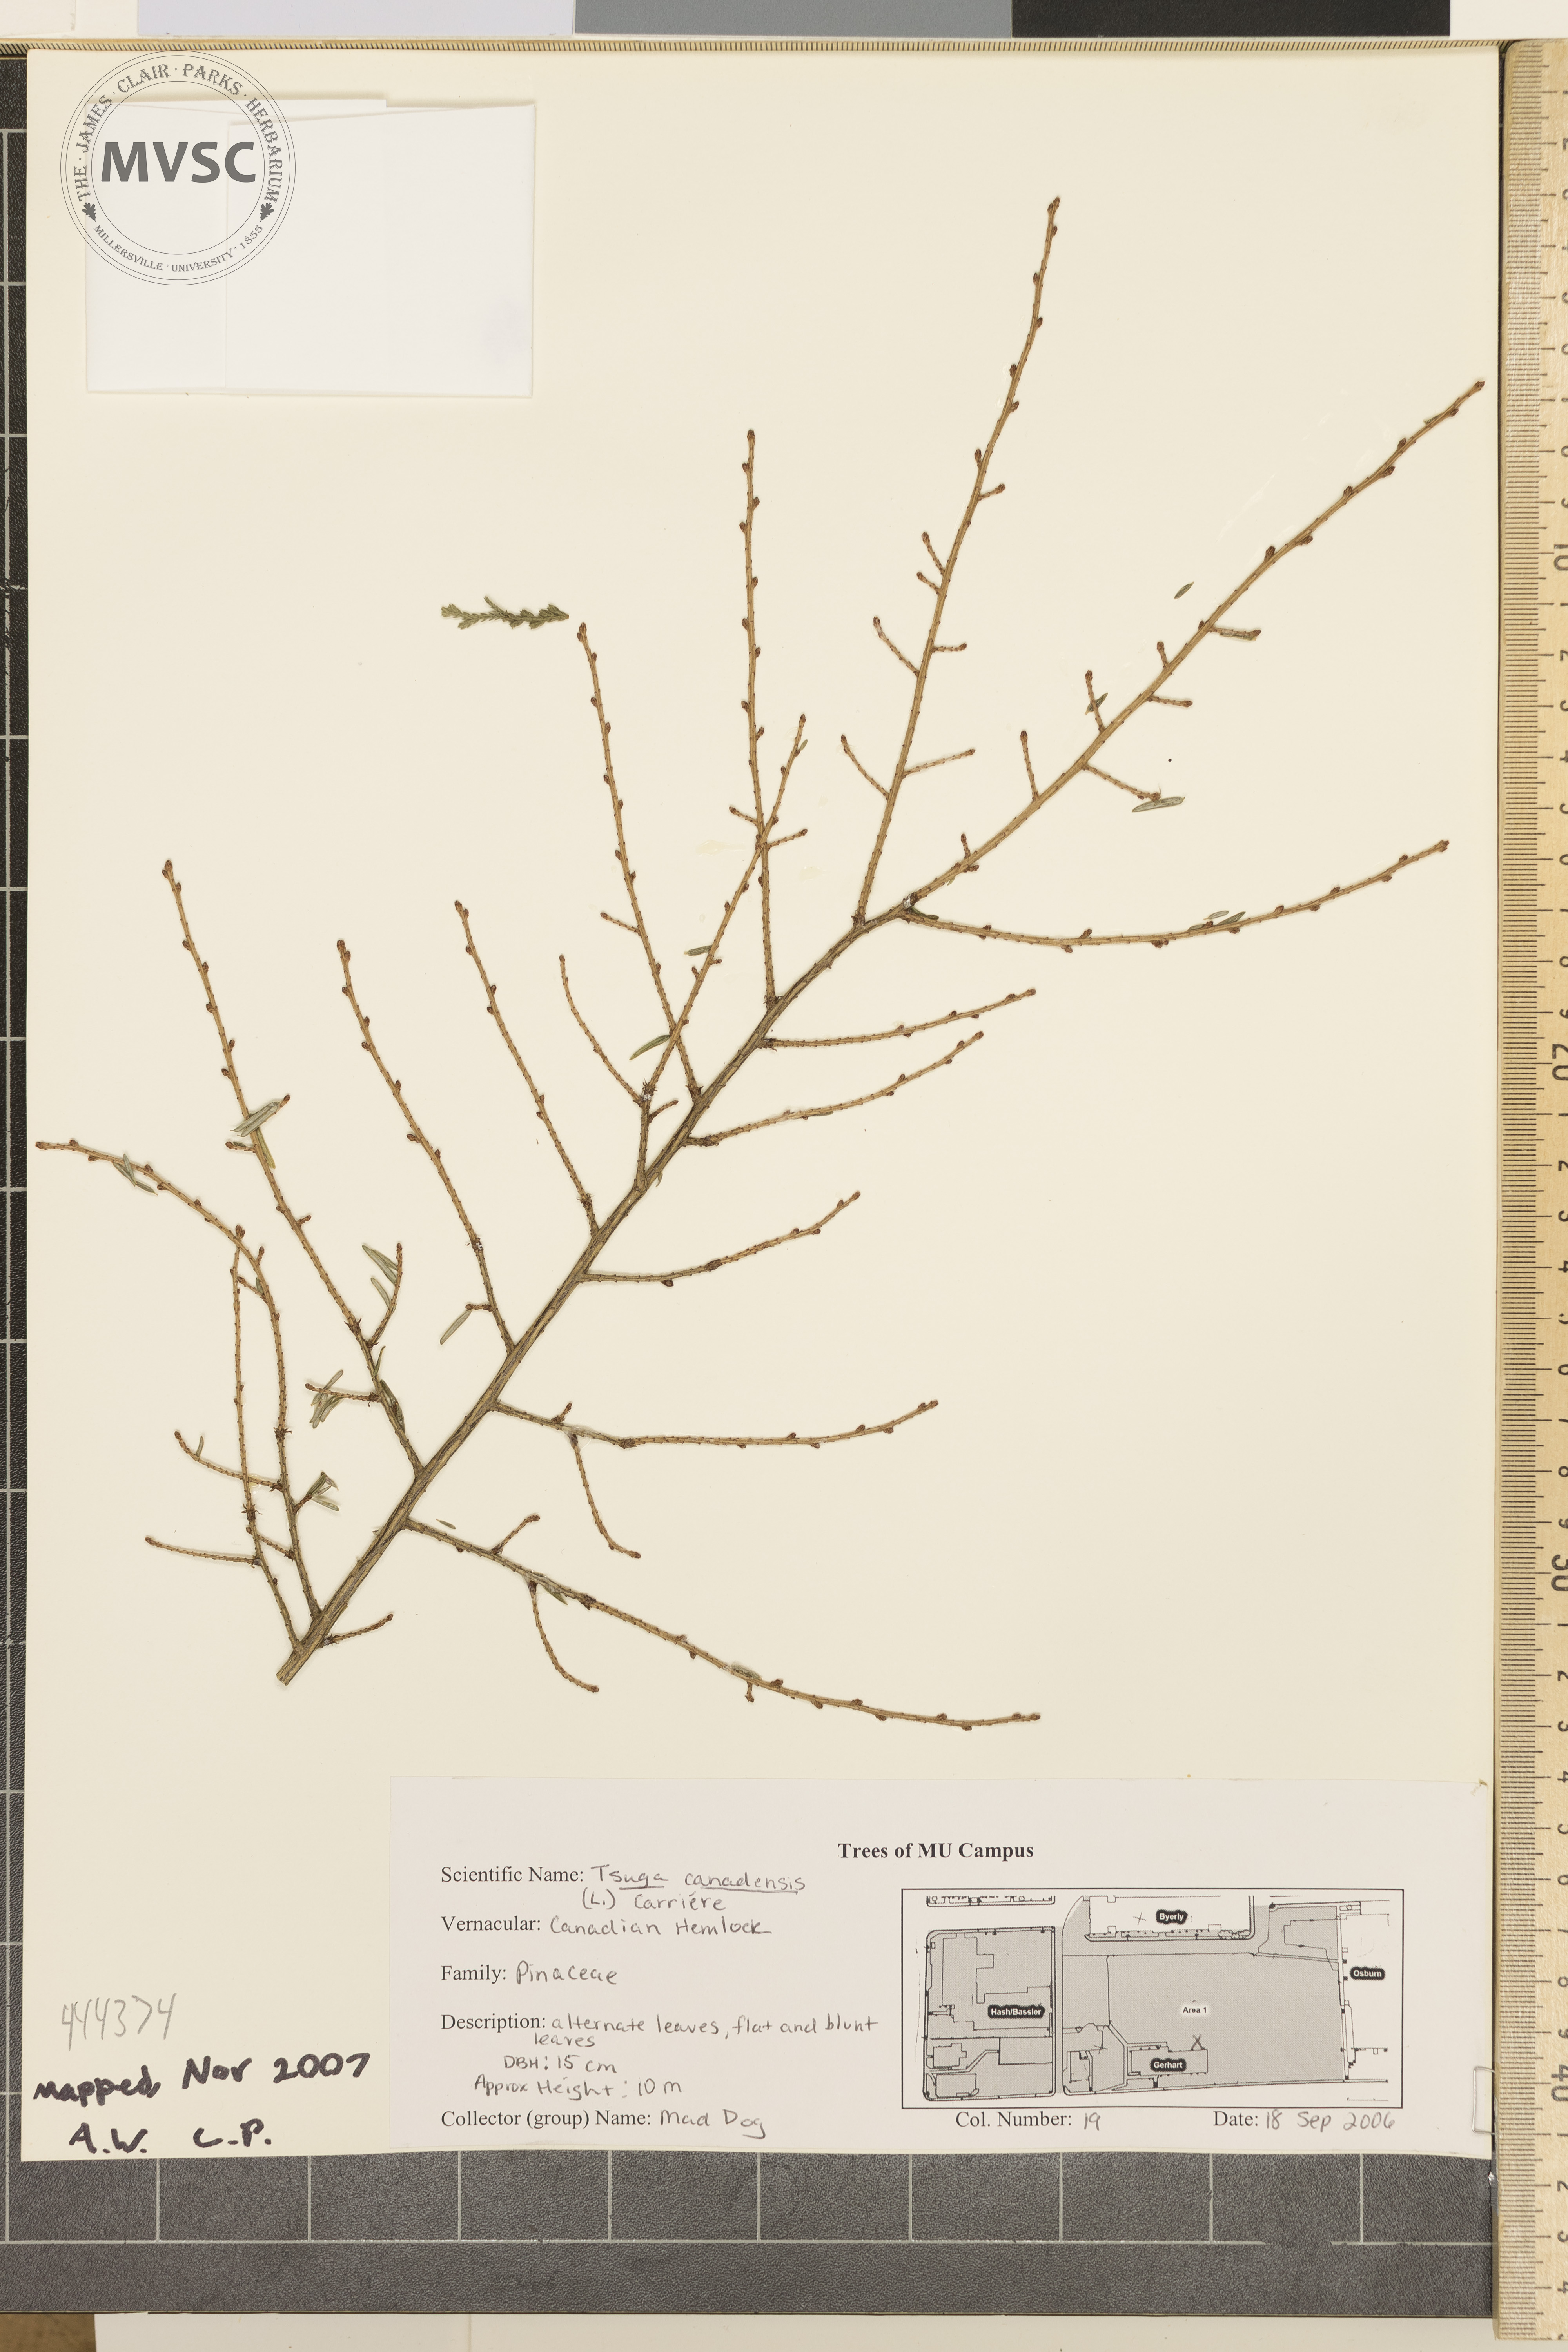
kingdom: Plantae
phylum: Tracheophyta
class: Pinopsida
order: Pinales
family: Pinaceae
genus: Tsuga
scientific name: Tsuga canadensis
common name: Canadian hemlock
